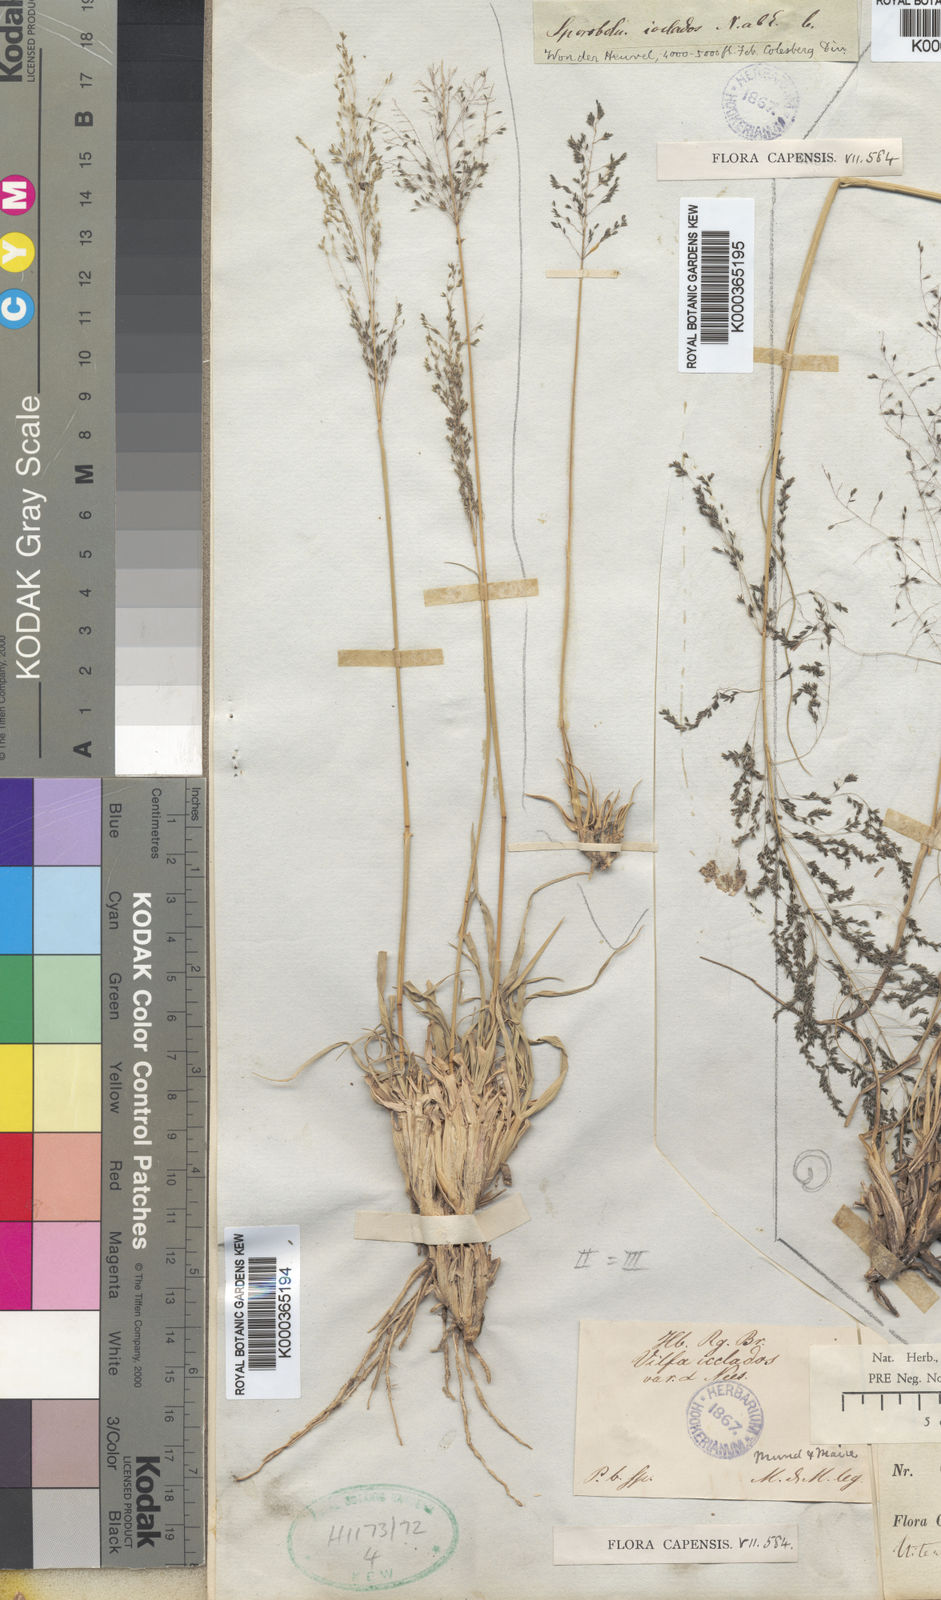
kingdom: Plantae
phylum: Tracheophyta
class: Liliopsida
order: Poales
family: Poaceae
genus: Sporobolus
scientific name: Sporobolus ioclados
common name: Pan dropseed
